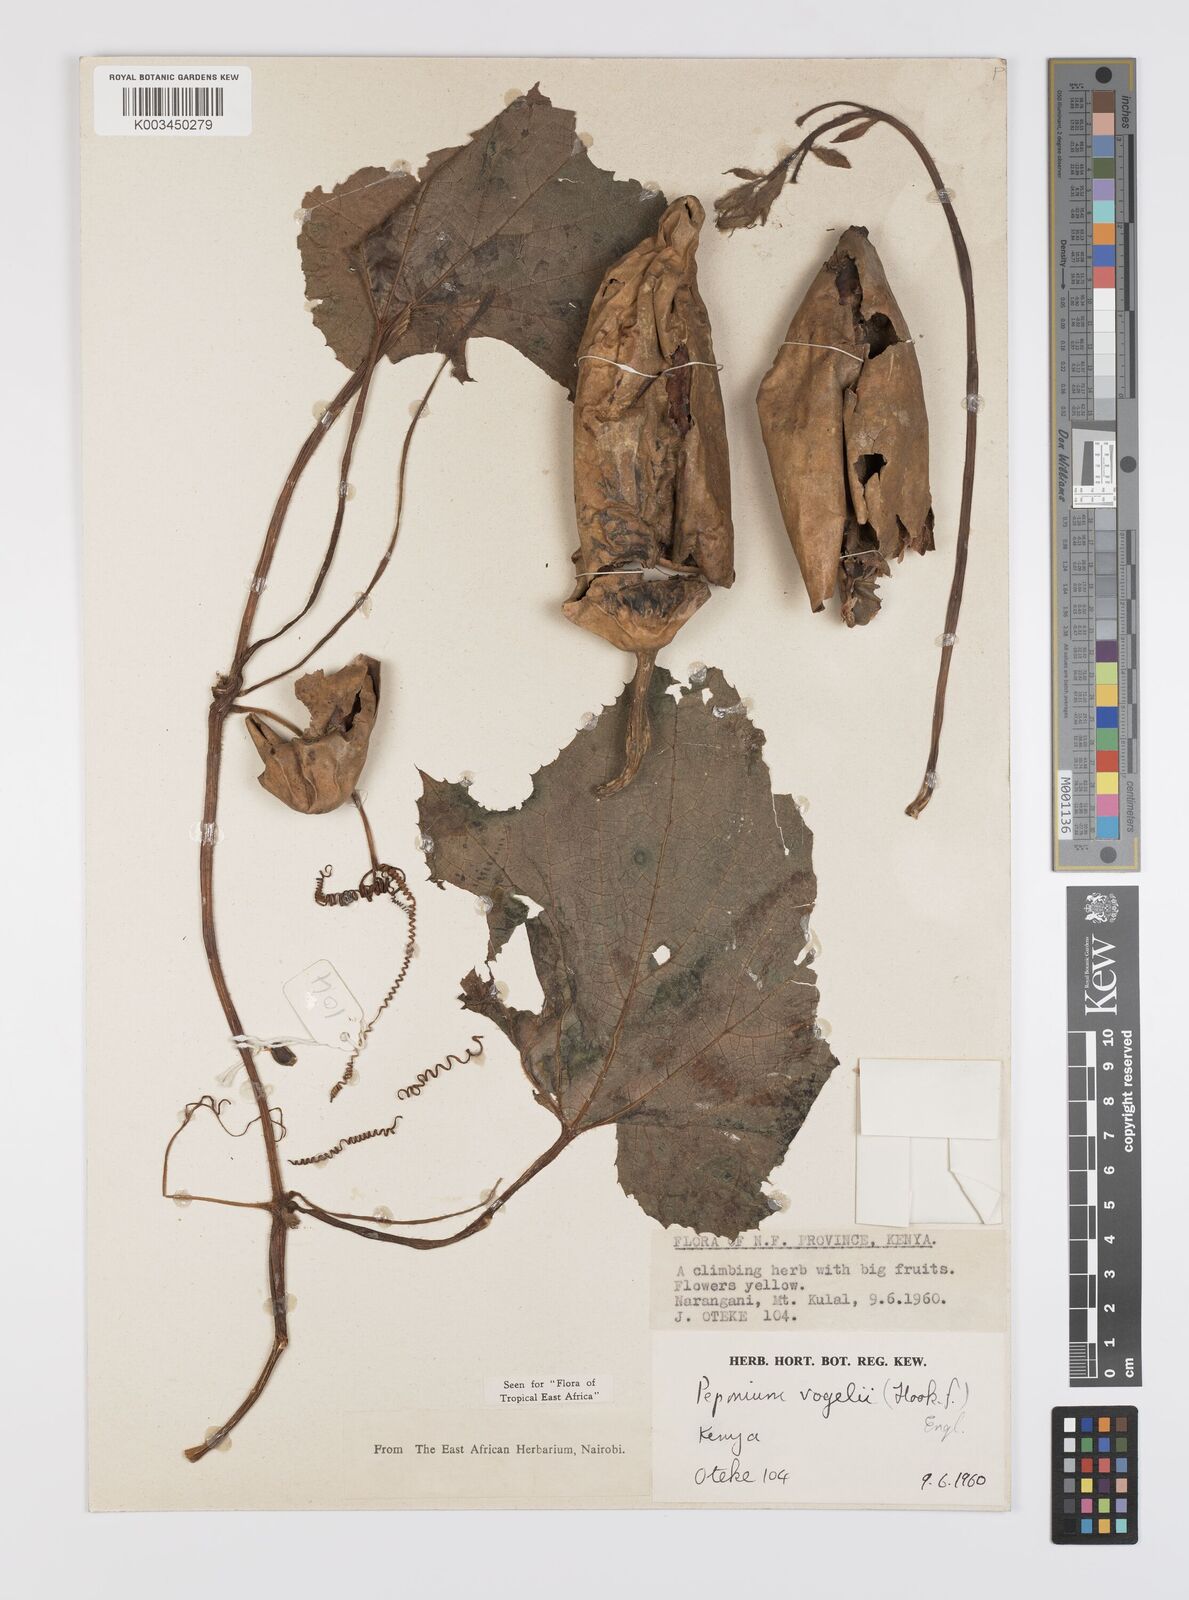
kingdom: Plantae
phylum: Tracheophyta
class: Magnoliopsida
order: Cucurbitales
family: Cucurbitaceae
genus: Peponium
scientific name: Peponium vogelii
